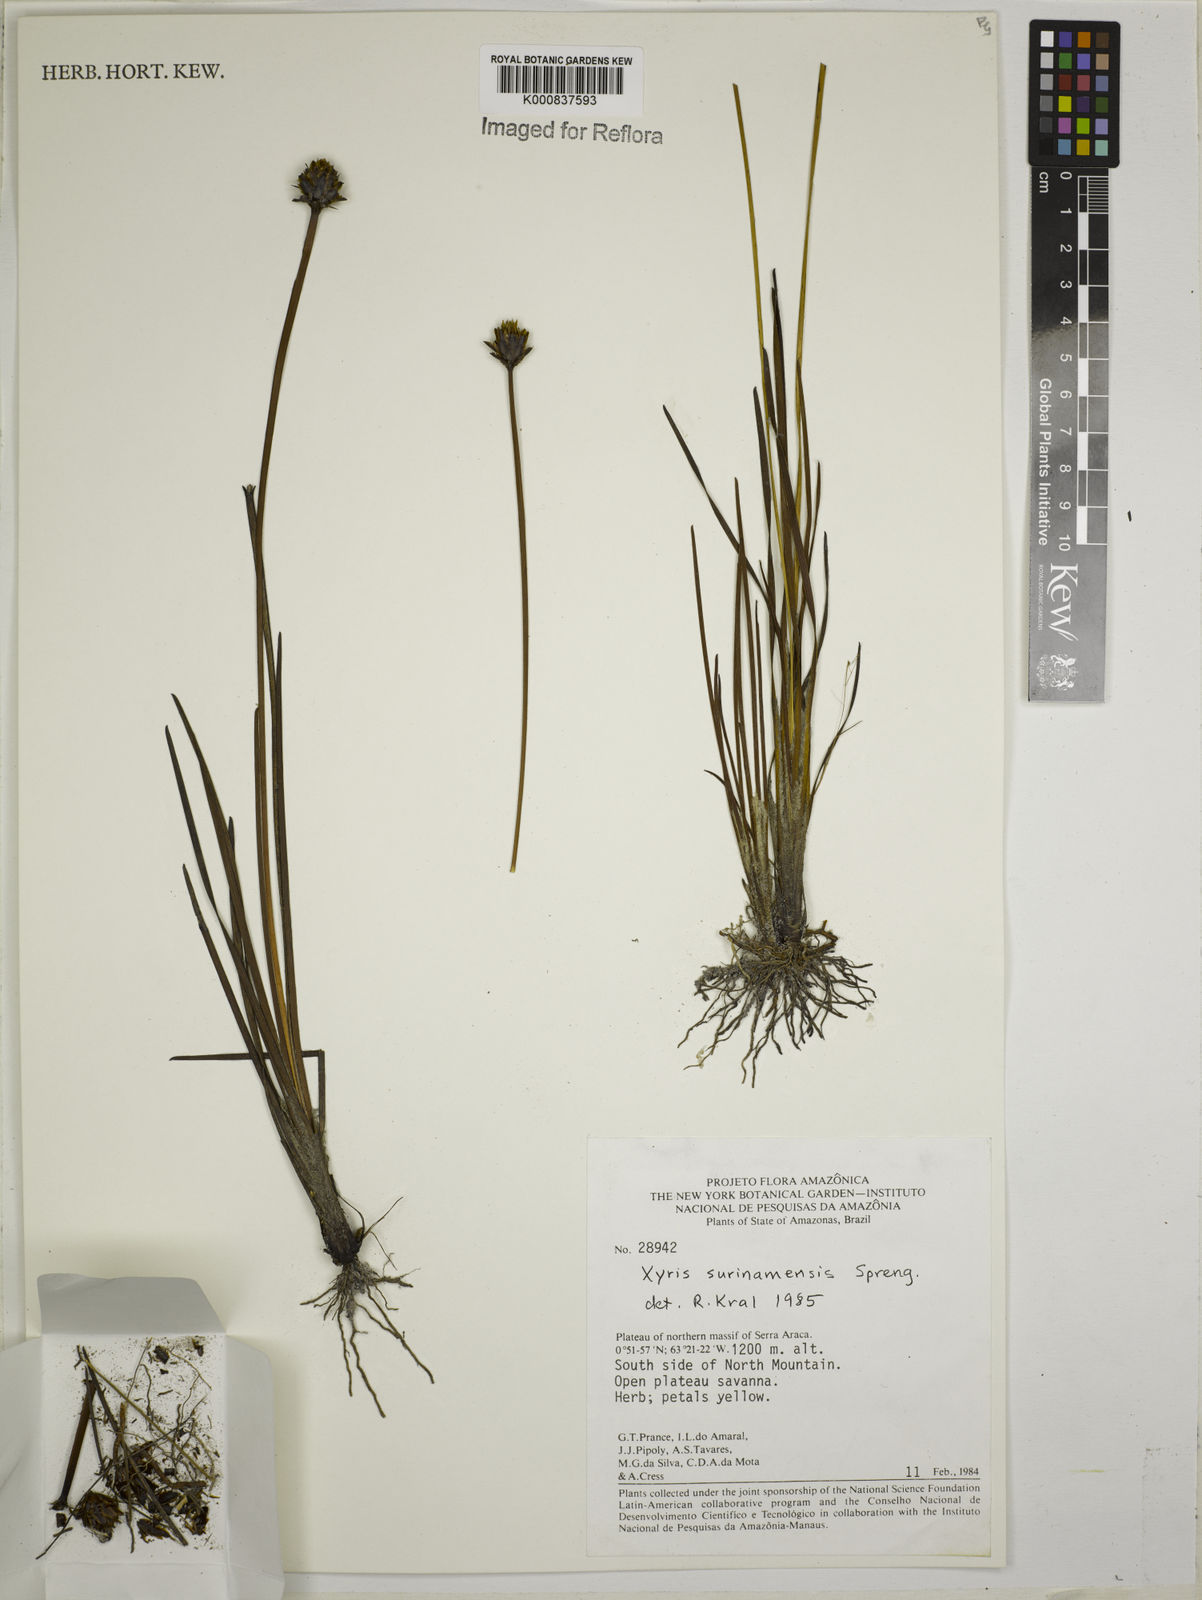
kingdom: Plantae
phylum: Tracheophyta
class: Liliopsida
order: Poales
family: Xyridaceae
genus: Xyris
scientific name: Xyris surinamensis
